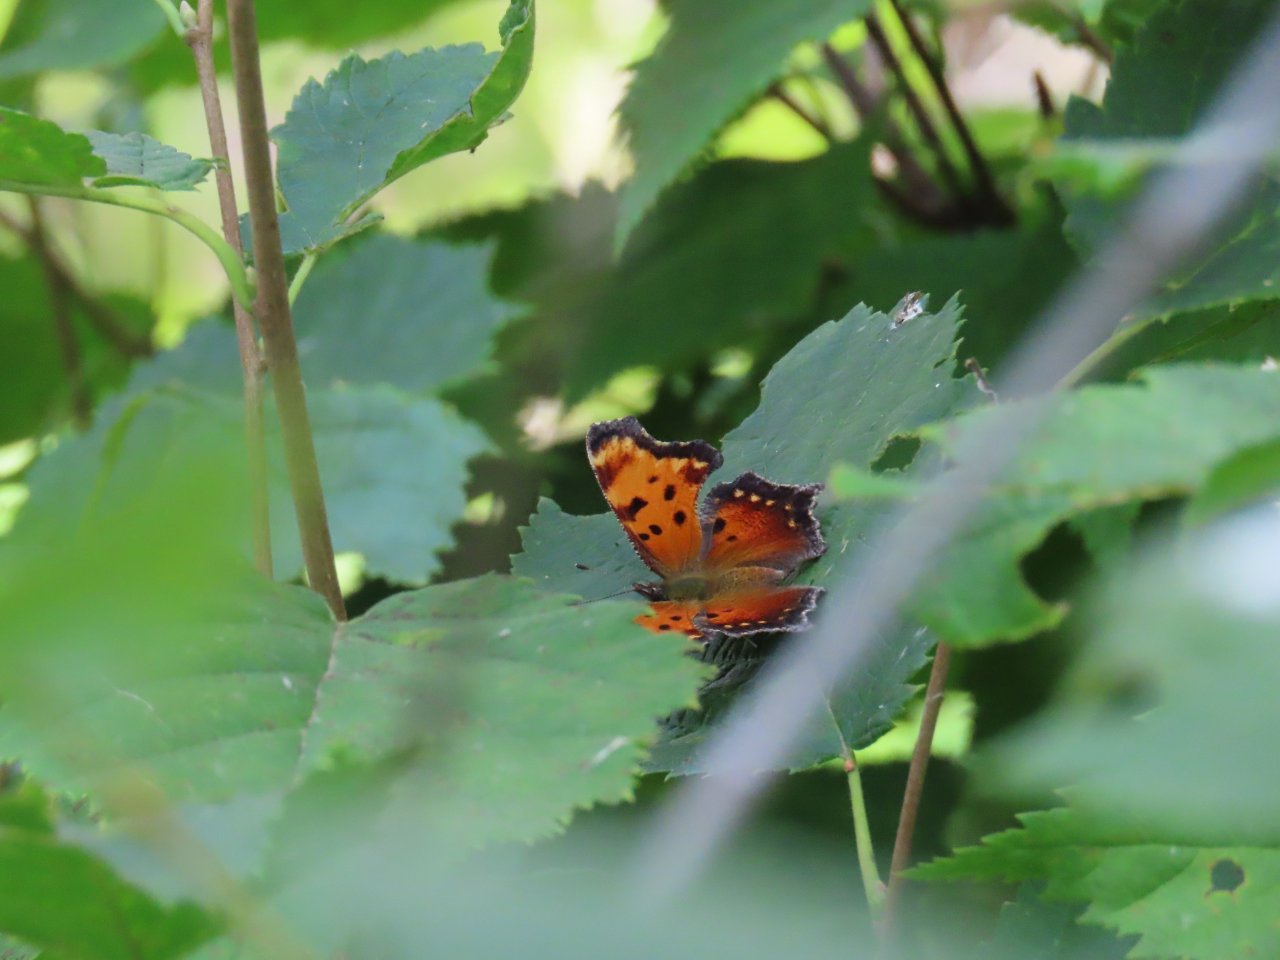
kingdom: Animalia
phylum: Arthropoda
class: Insecta
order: Lepidoptera
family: Nymphalidae
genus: Polygonia
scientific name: Polygonia progne
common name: Gray Comma
